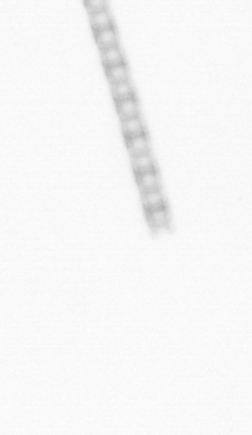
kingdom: Chromista
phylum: Ochrophyta
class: Bacillariophyceae
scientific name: Bacillariophyceae
